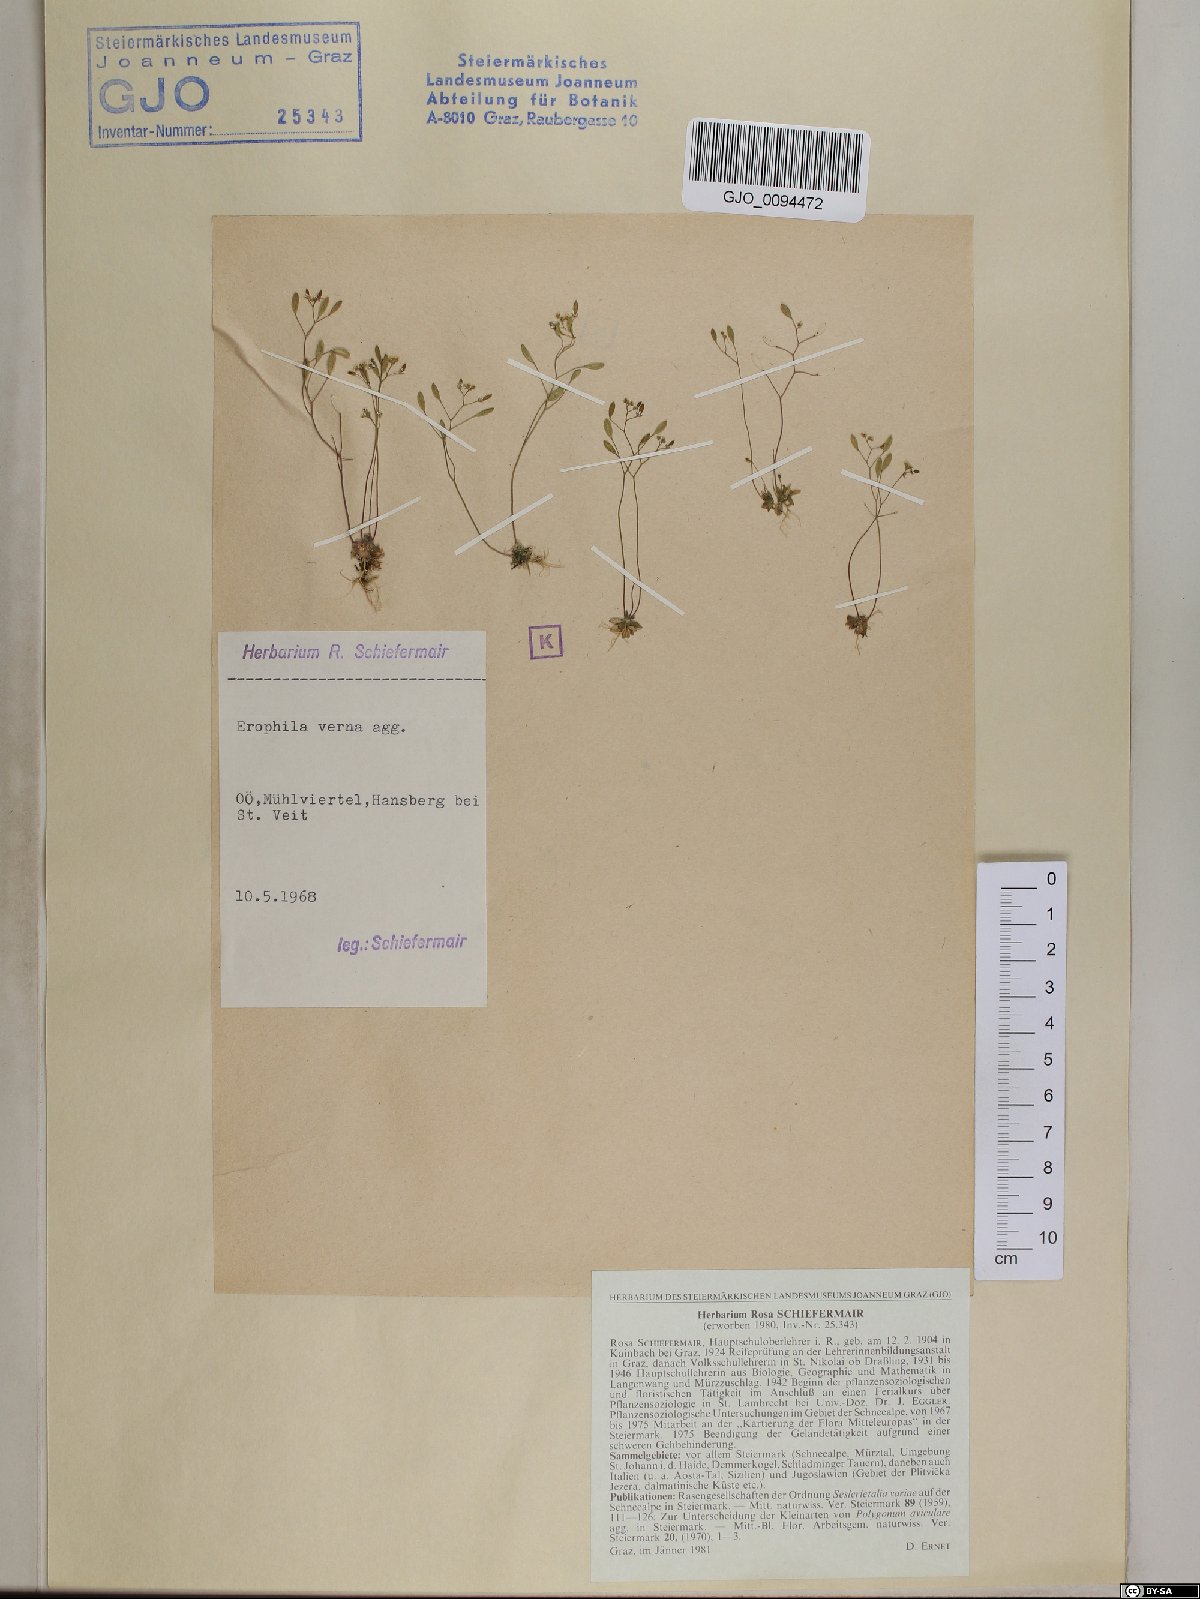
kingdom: Plantae
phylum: Tracheophyta
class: Magnoliopsida
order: Brassicales
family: Brassicaceae
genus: Draba
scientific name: Draba verna
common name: Spring draba
